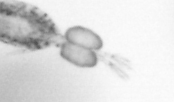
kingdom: Animalia
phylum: Arthropoda
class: Copepoda
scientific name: Copepoda
